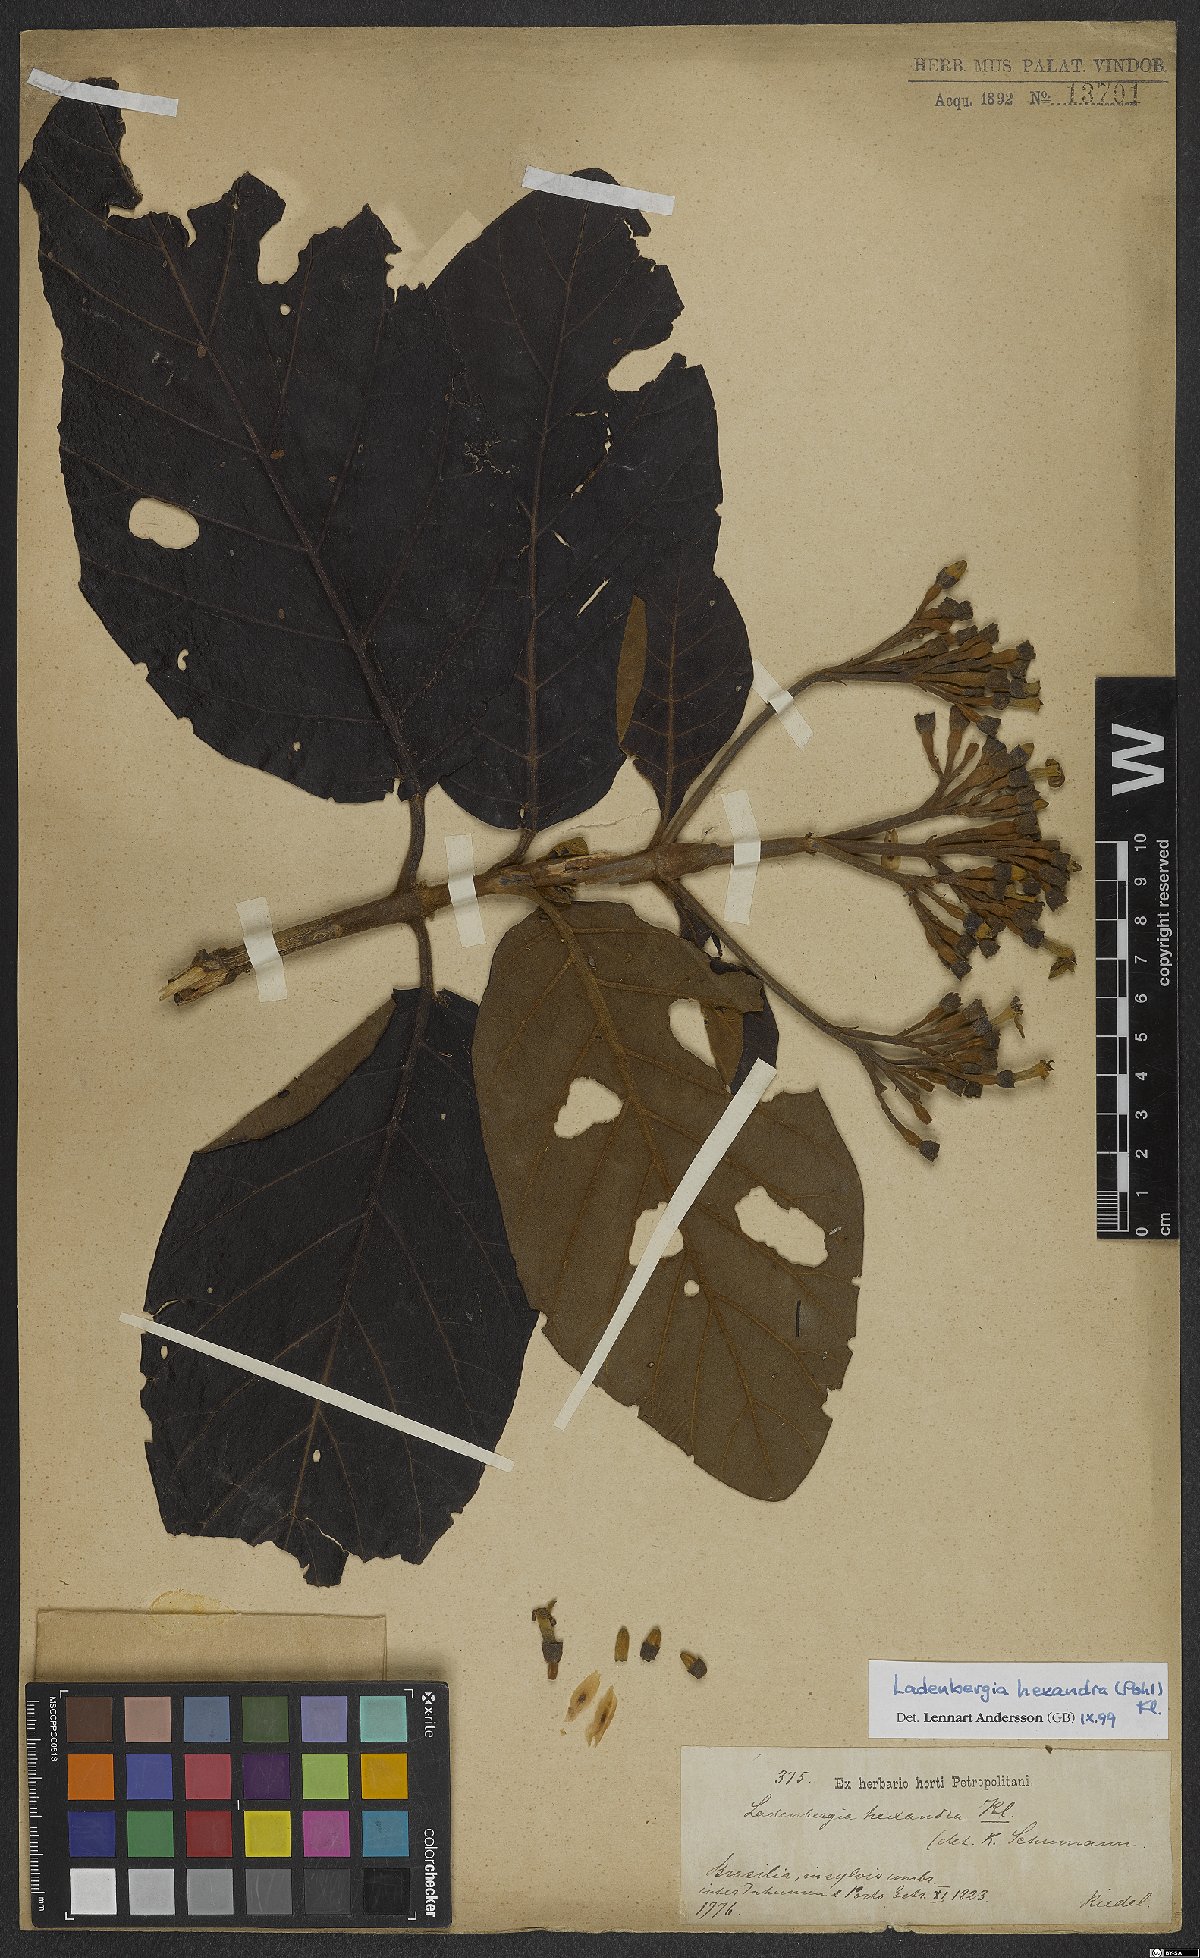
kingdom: Plantae
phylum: Tracheophyta
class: Magnoliopsida
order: Gentianales
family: Rubiaceae
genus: Ladenbergia
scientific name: Ladenbergia hexandra
